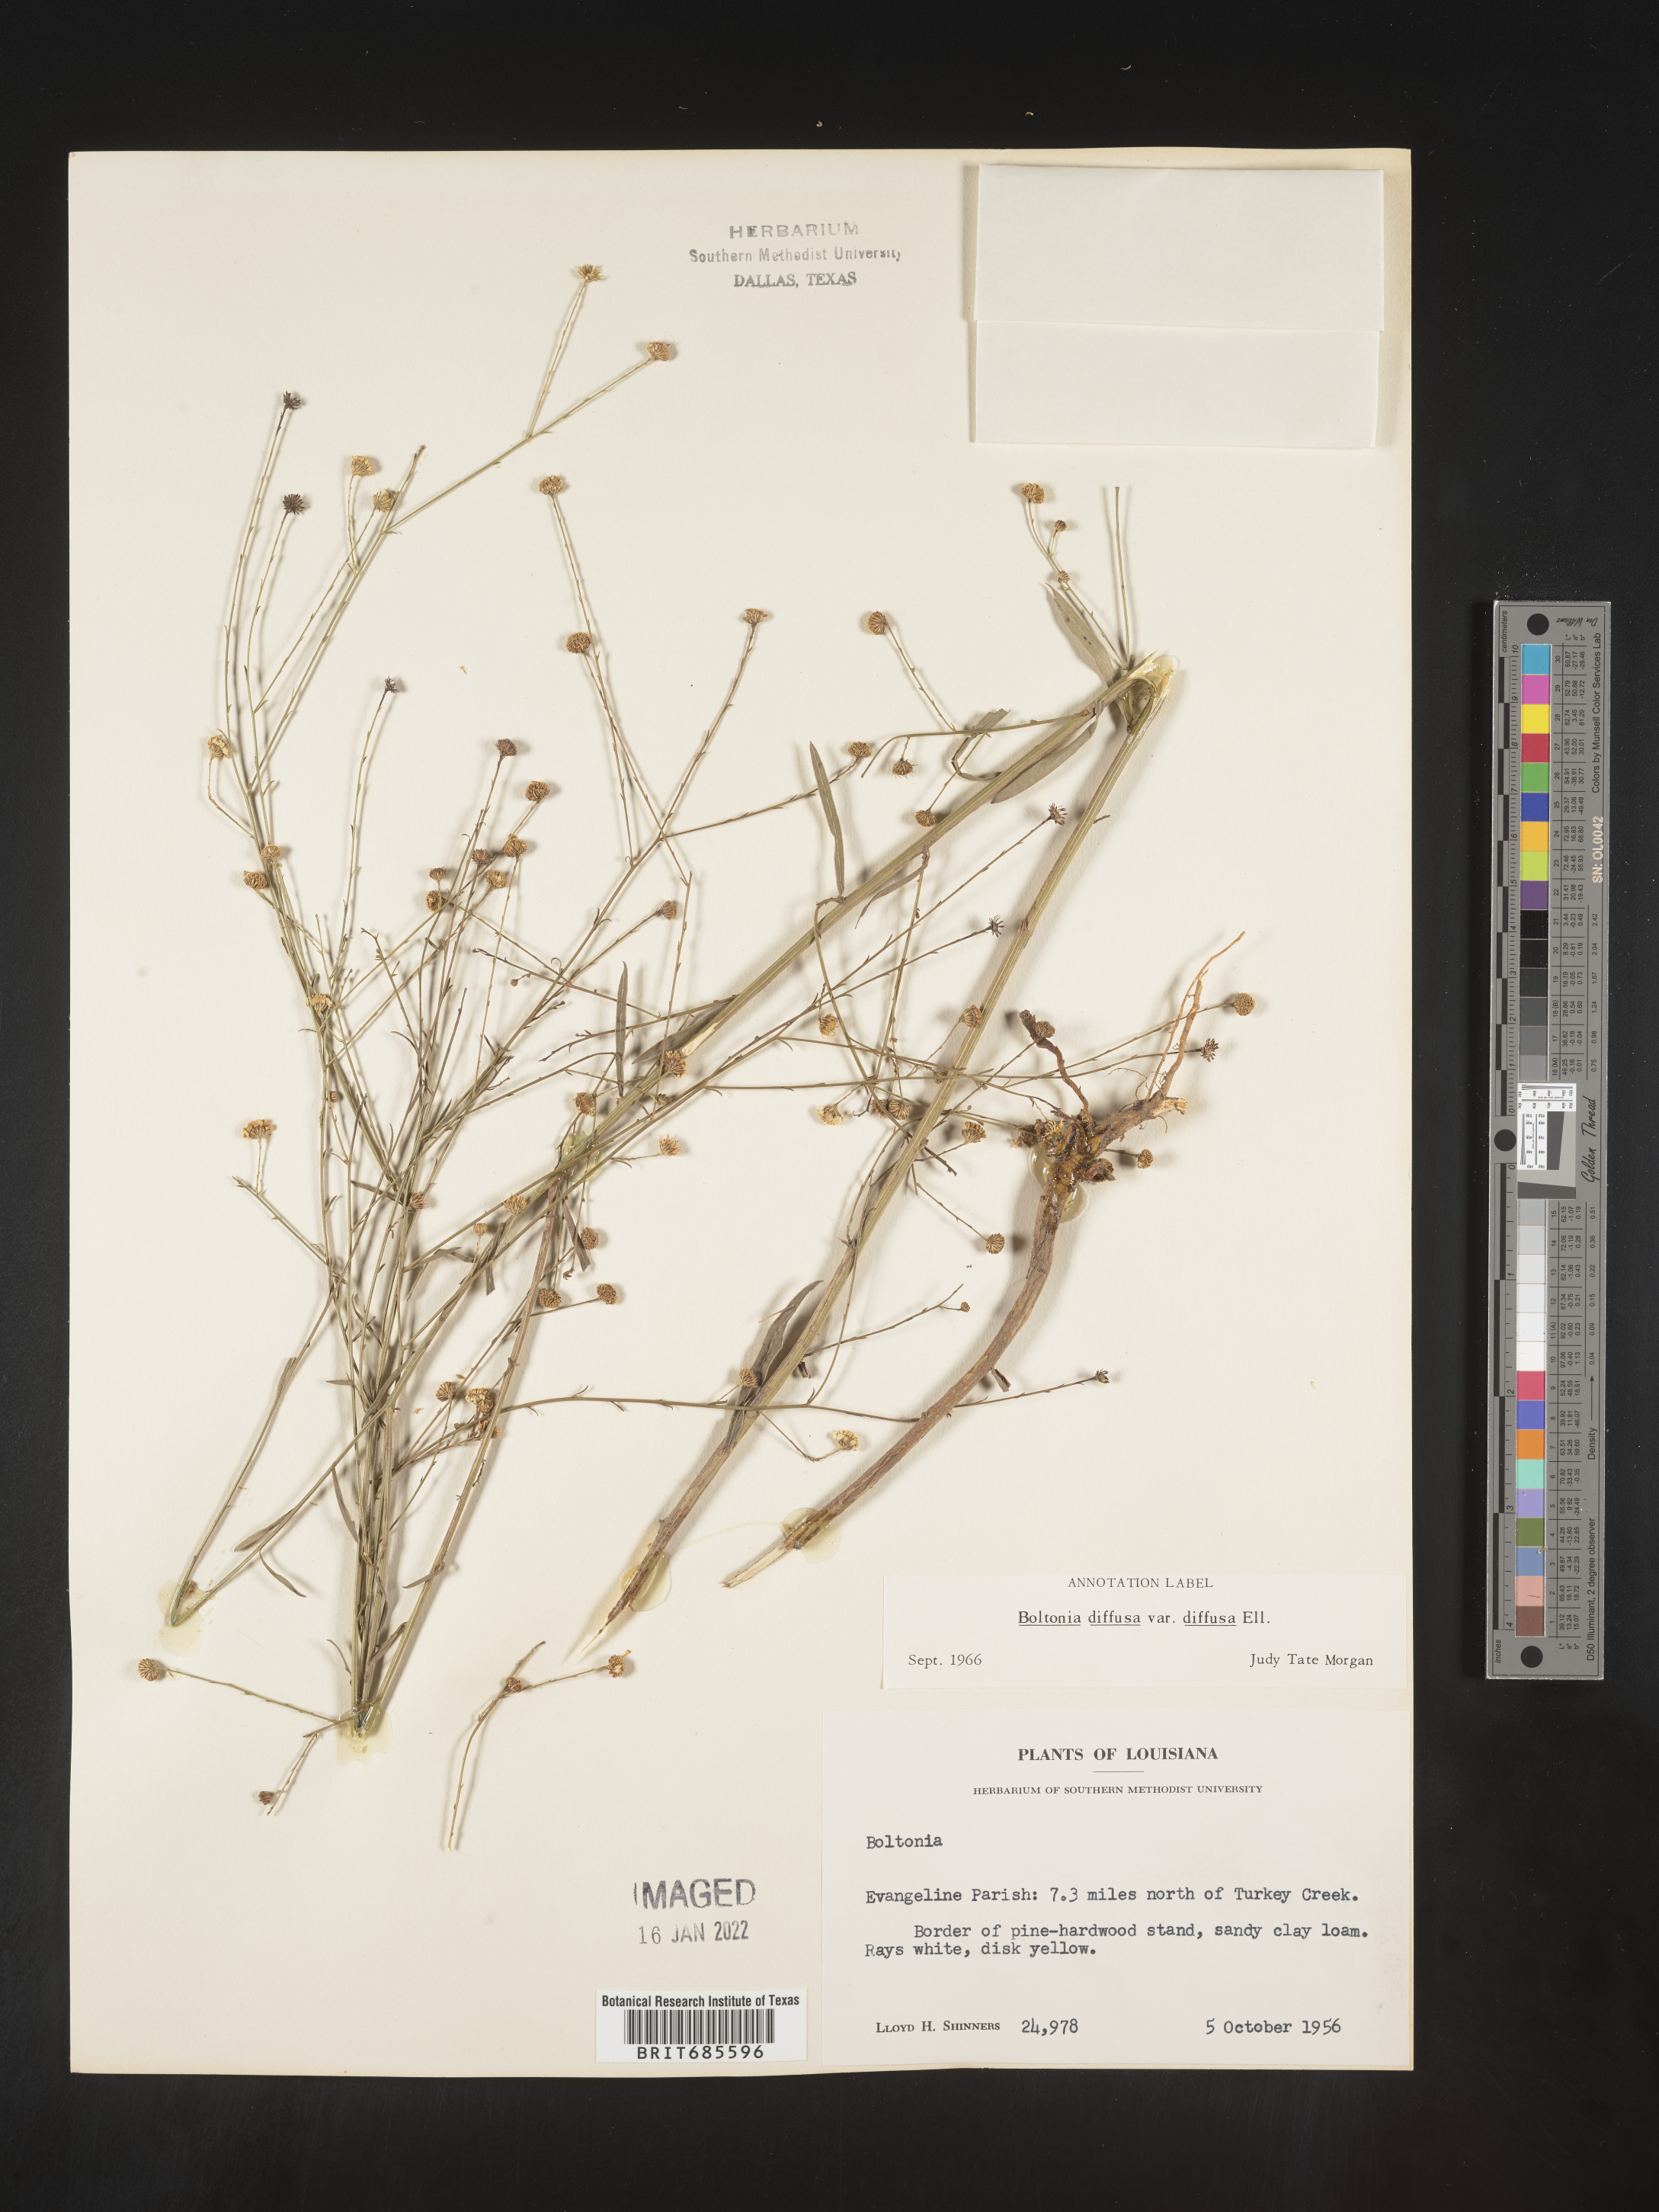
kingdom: Plantae
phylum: Tracheophyta
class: Magnoliopsida
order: Asterales
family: Asteraceae
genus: Boltonia
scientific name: Boltonia diffusa
